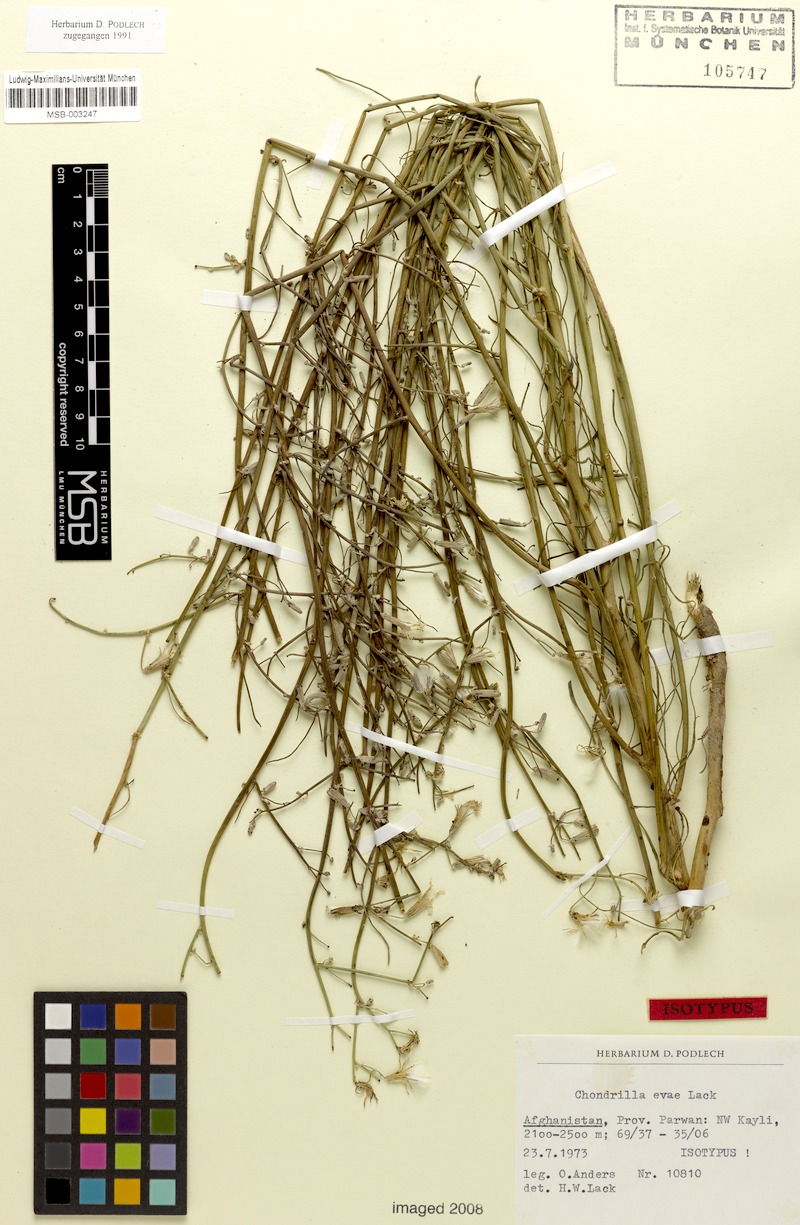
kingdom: Plantae
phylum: Tracheophyta
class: Magnoliopsida
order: Asterales
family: Asteraceae
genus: Chondrilla
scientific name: Chondrilla evae
